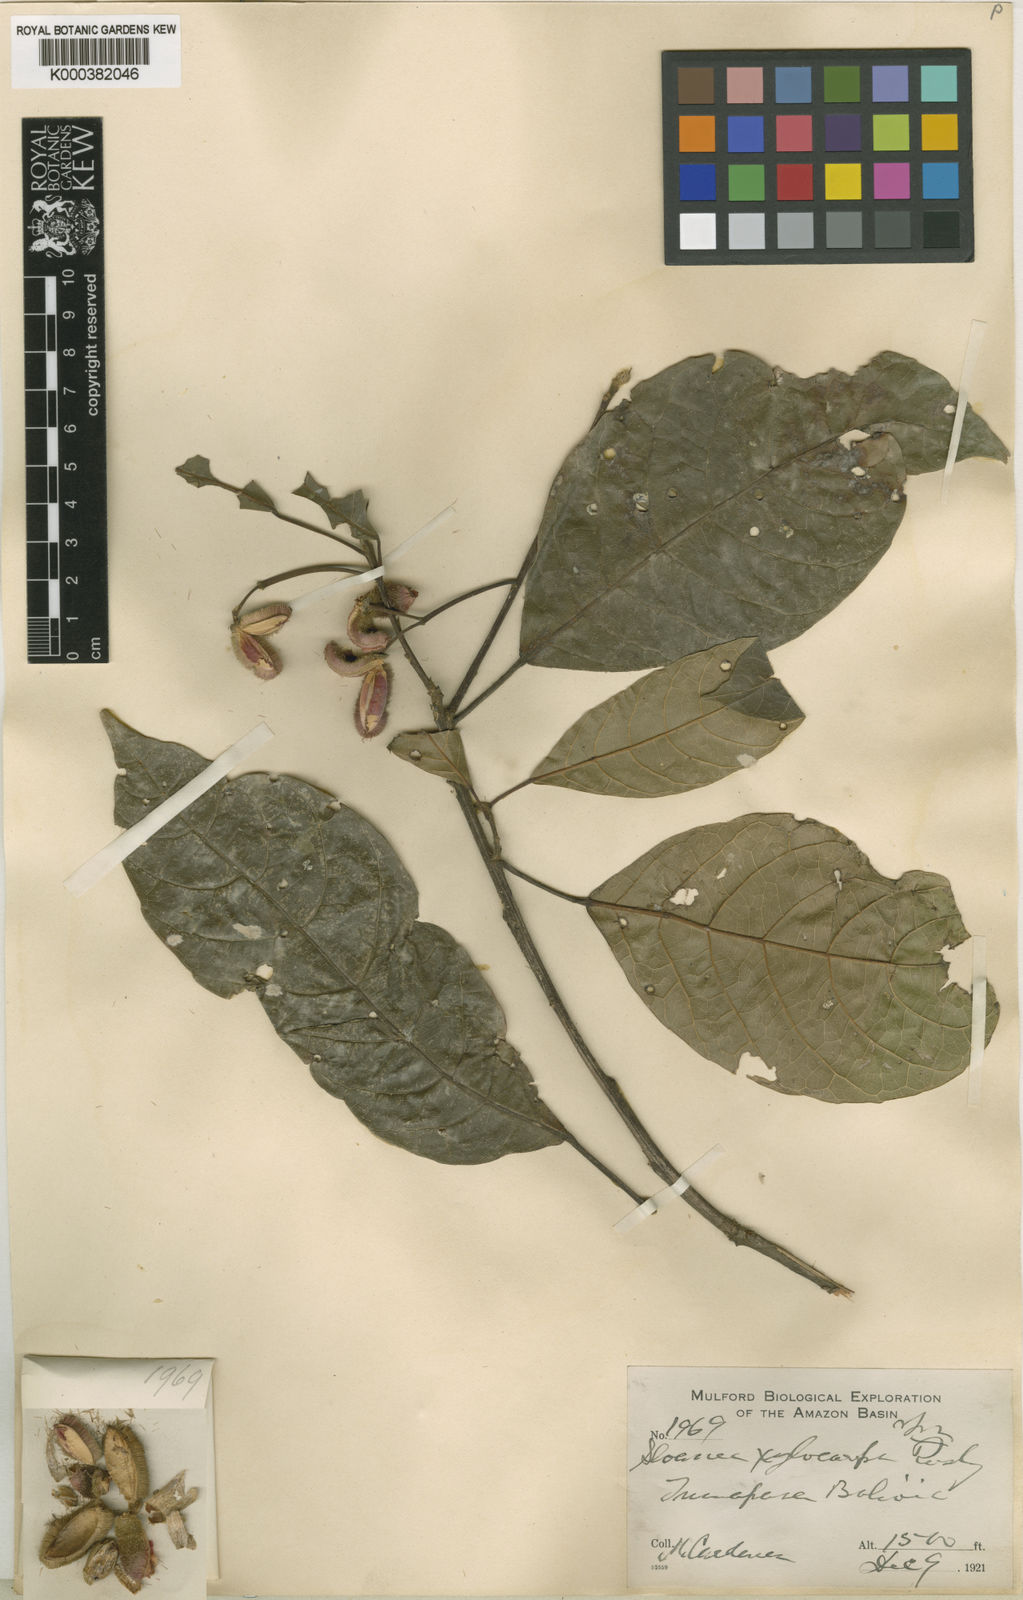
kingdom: Plantae
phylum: Tracheophyta
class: Magnoliopsida
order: Oxalidales
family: Elaeocarpaceae
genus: Sloanea
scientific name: Sloanea pubescens
